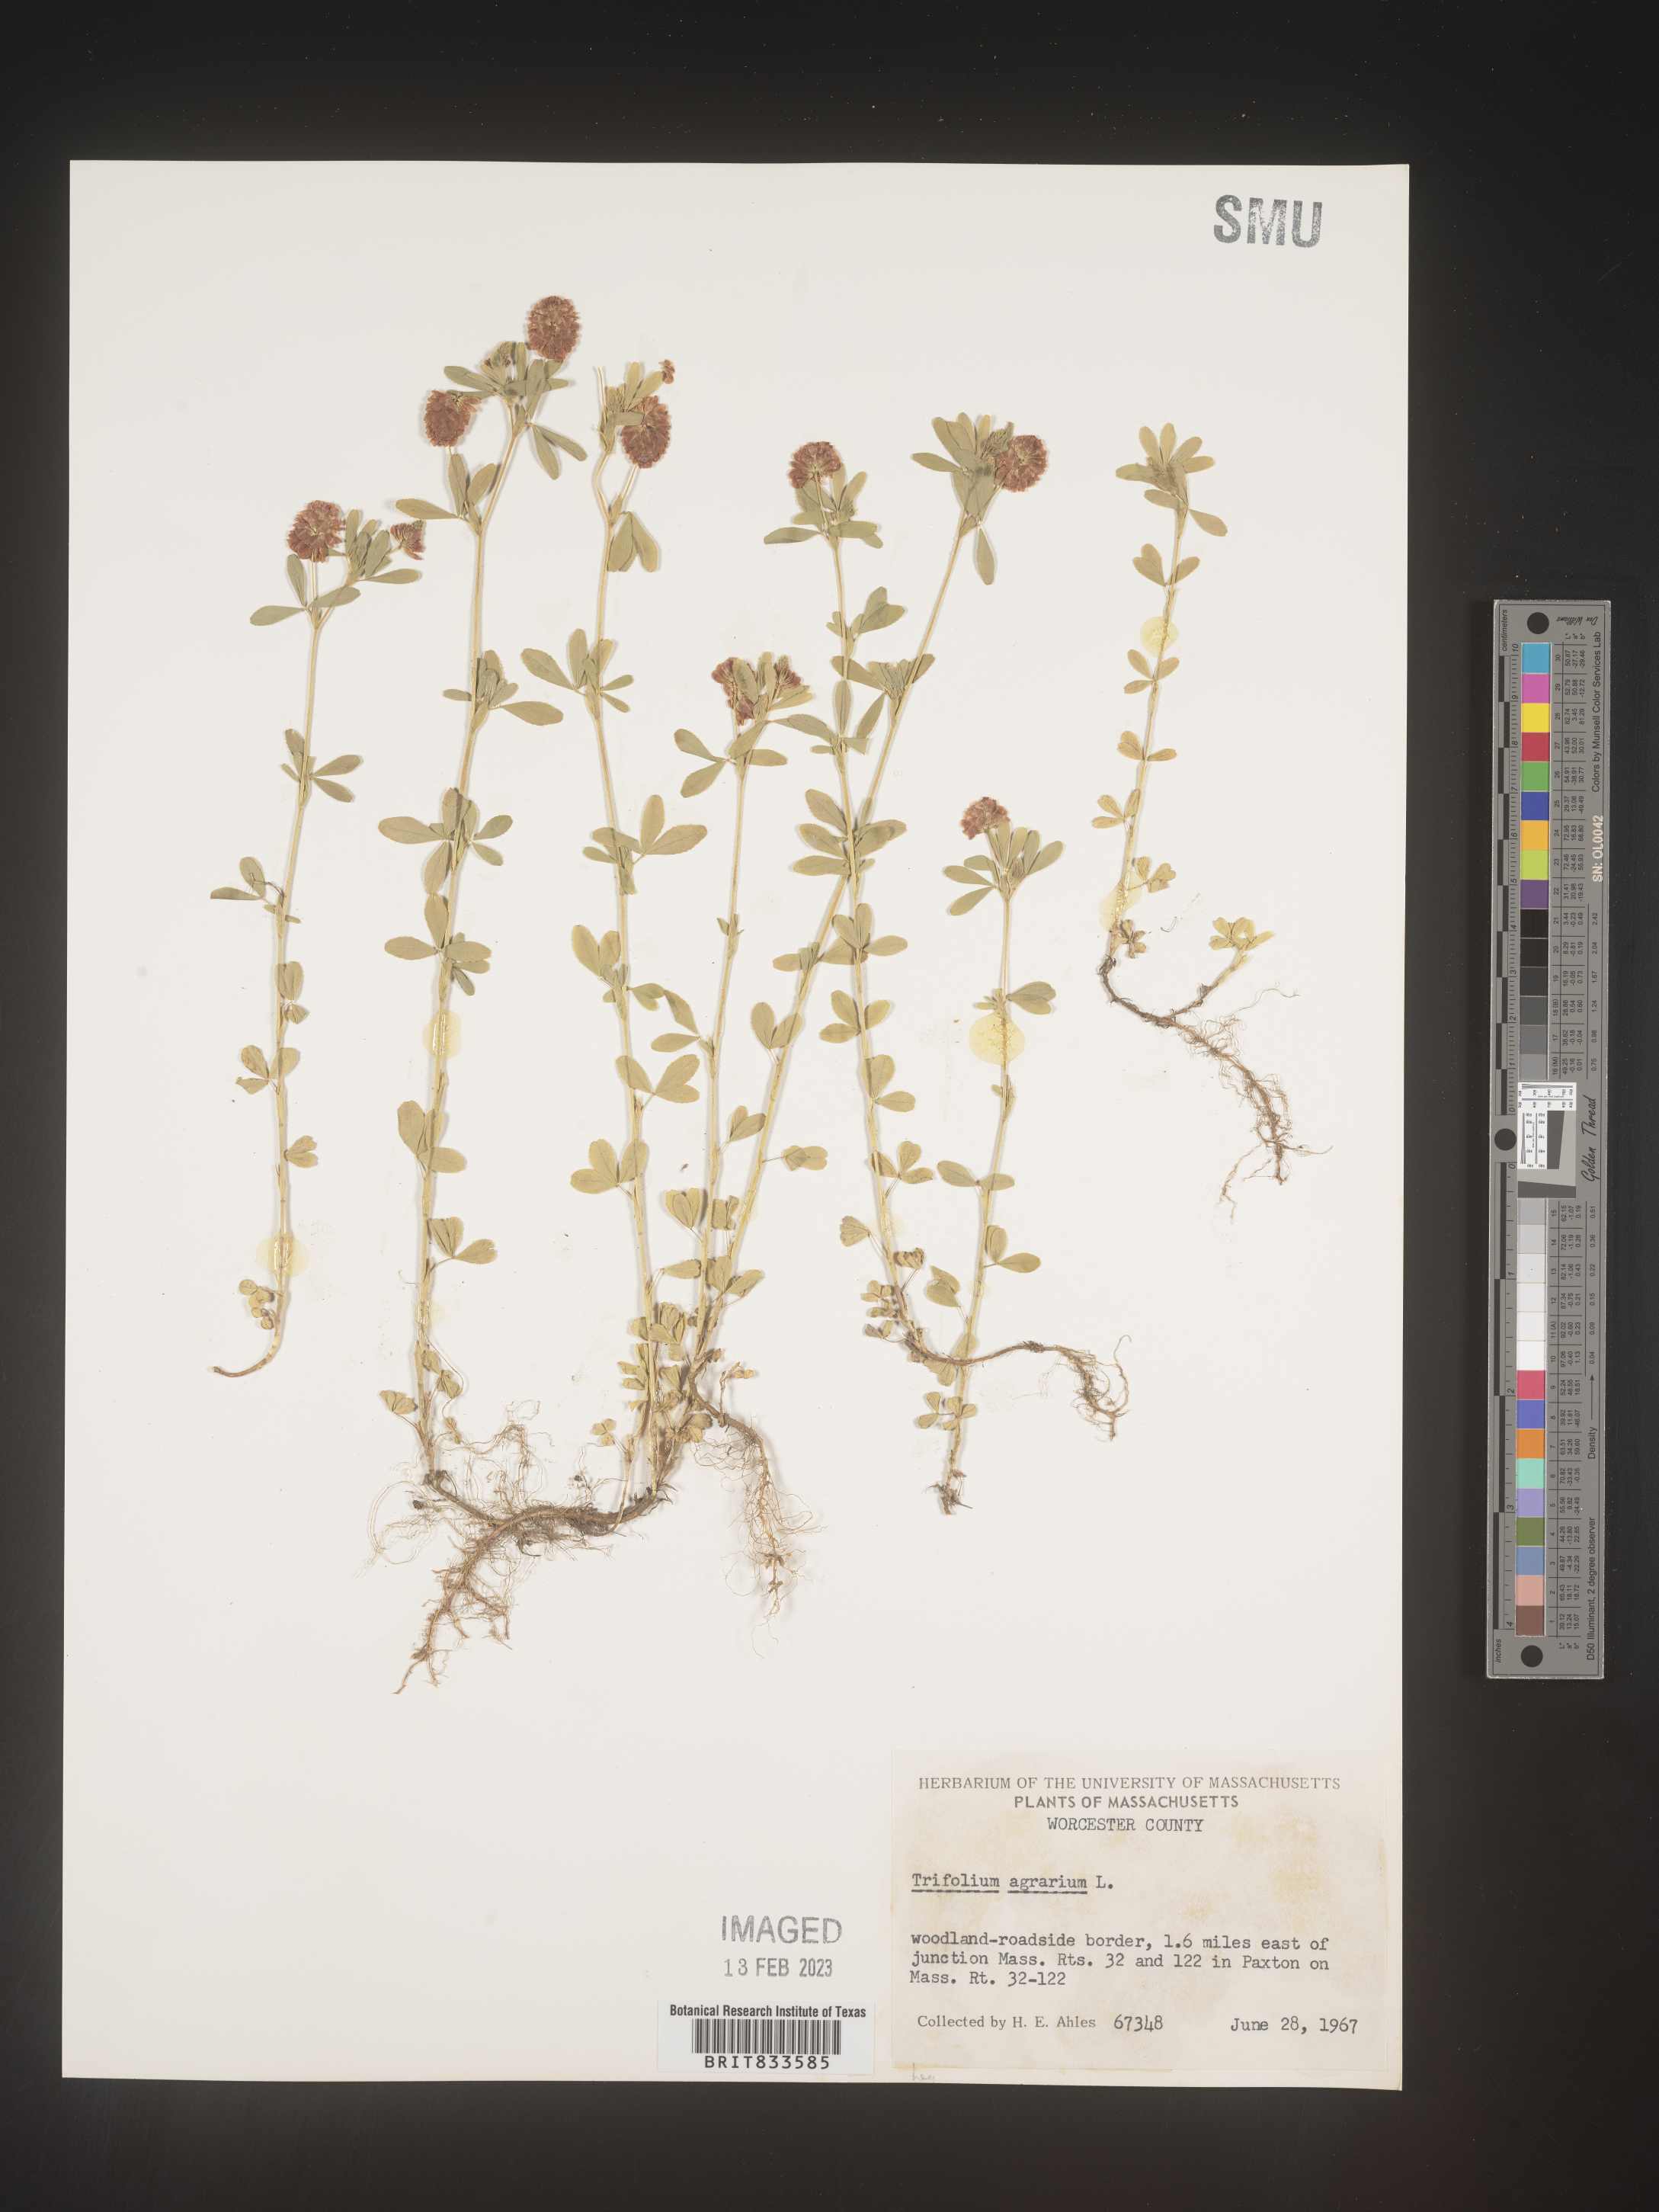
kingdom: Plantae
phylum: Tracheophyta
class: Magnoliopsida
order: Fabales
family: Fabaceae
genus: Trifolium
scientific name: Trifolium agrarium
